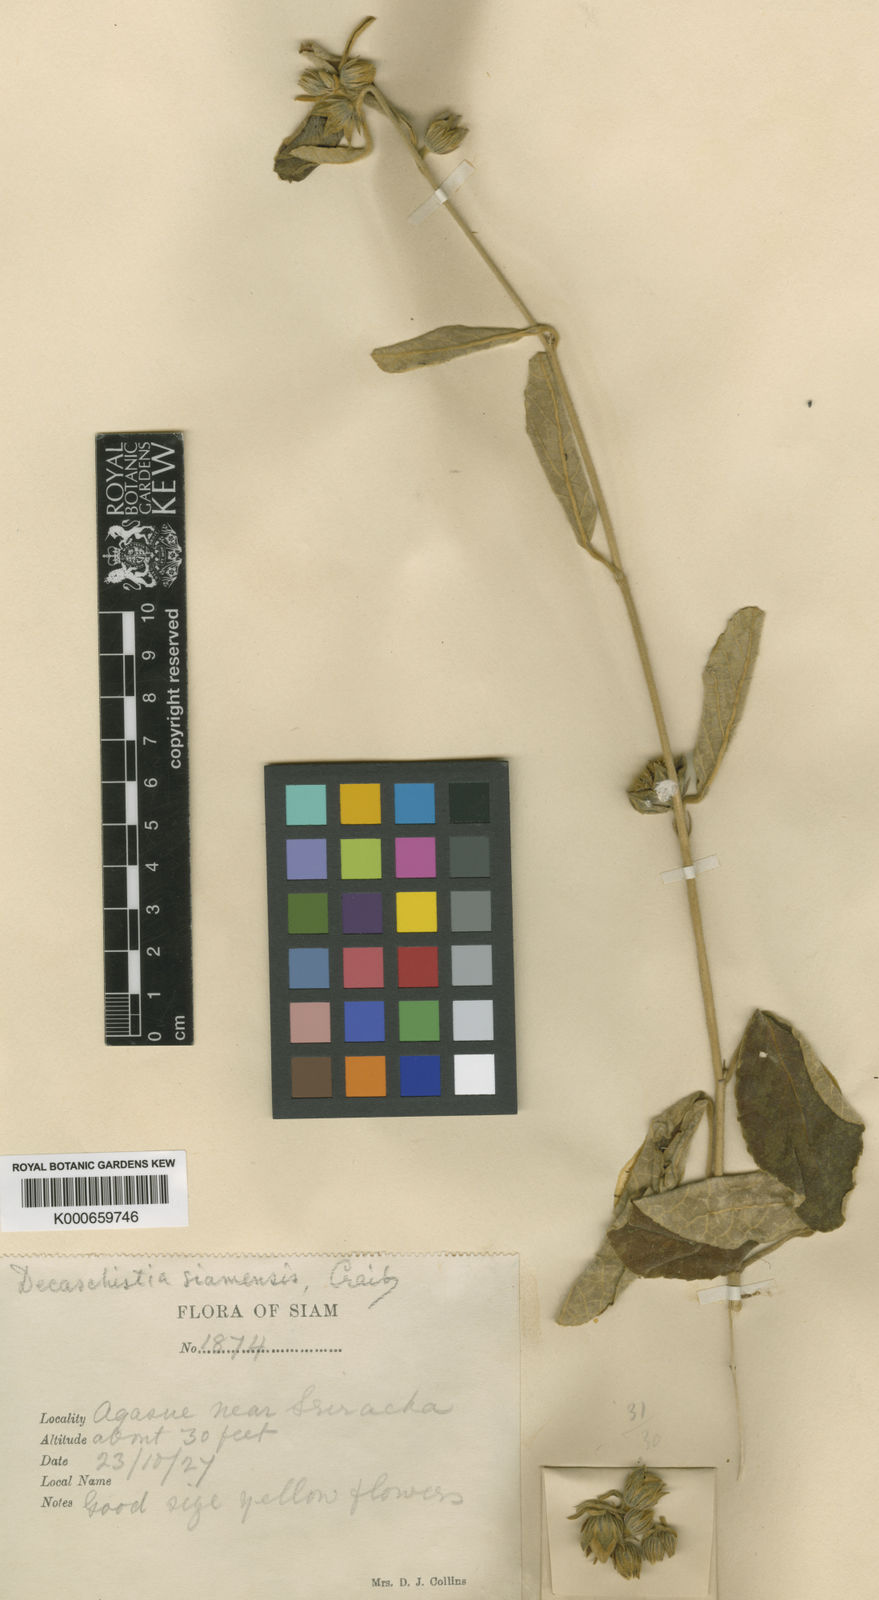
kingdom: Plantae
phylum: Tracheophyta
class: Magnoliopsida
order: Malvales
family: Malvaceae
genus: Decaschistia
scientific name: Decaschistia parviflora
